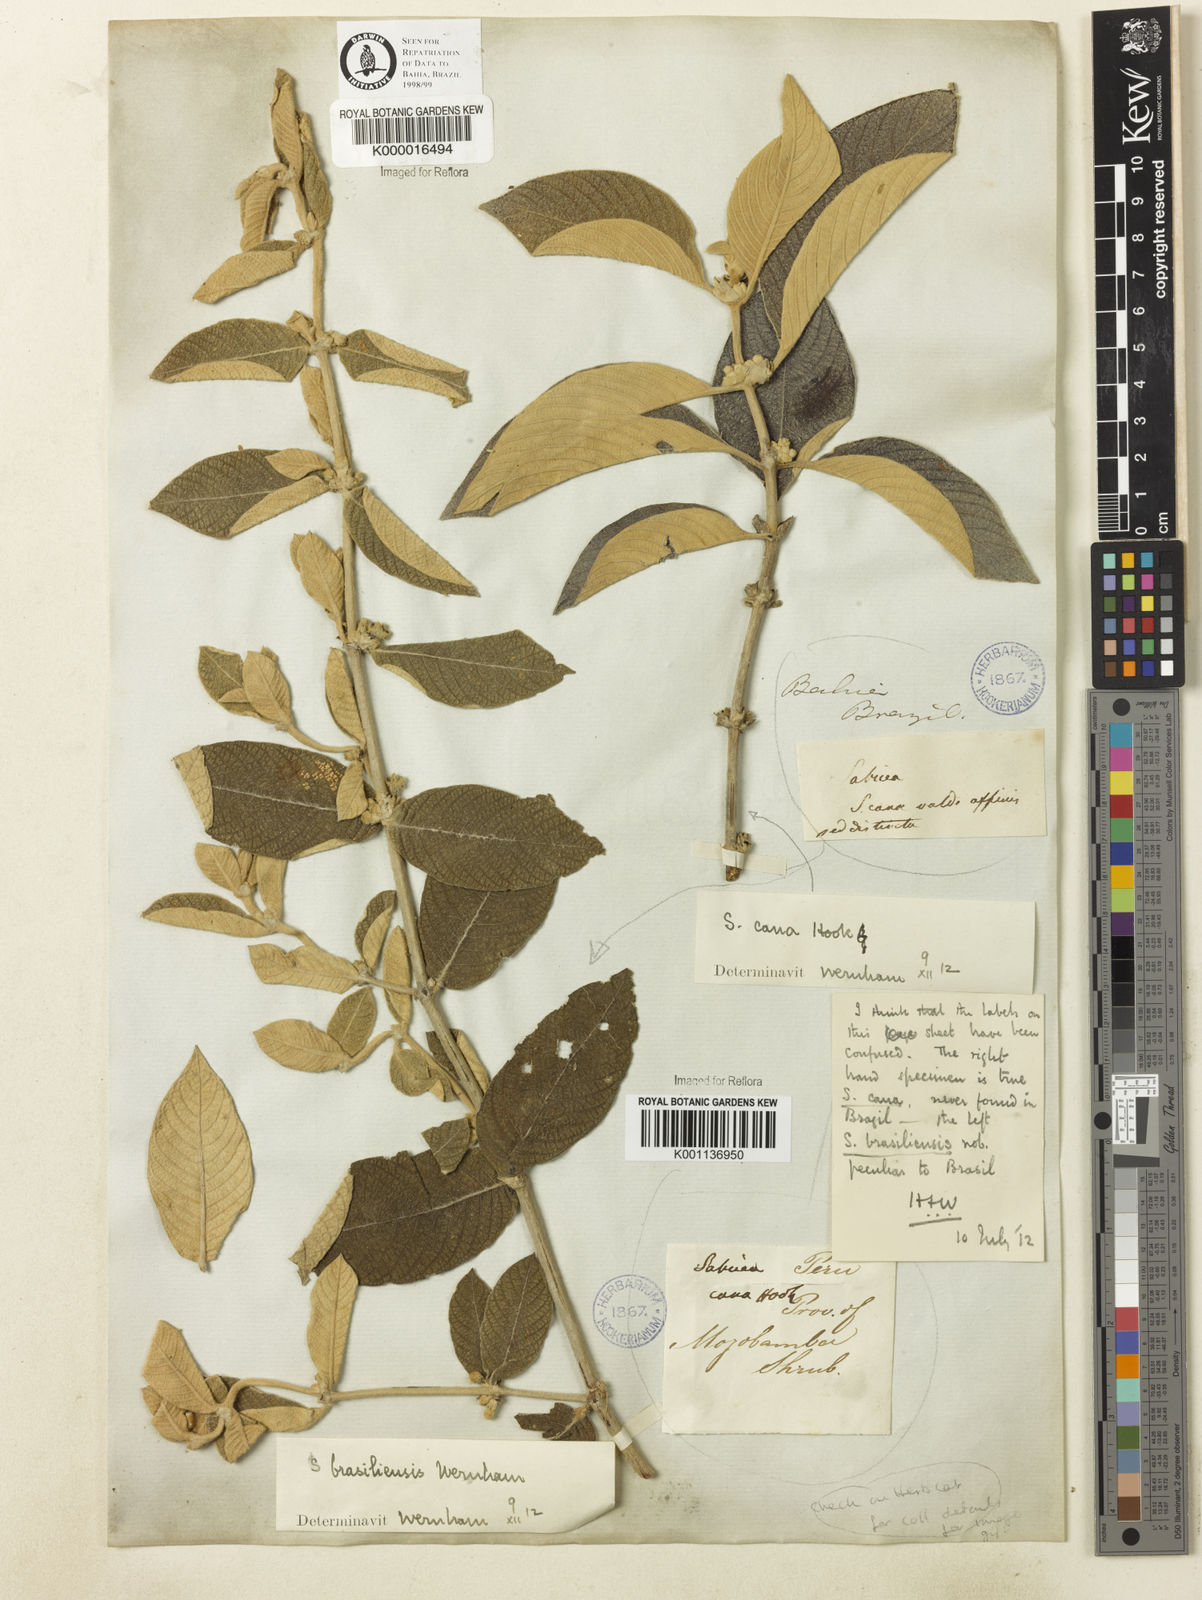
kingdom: Plantae
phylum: Tracheophyta
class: Magnoliopsida
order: Gentianales
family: Rubiaceae
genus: Sabicea
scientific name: Sabicea brasiliensis
